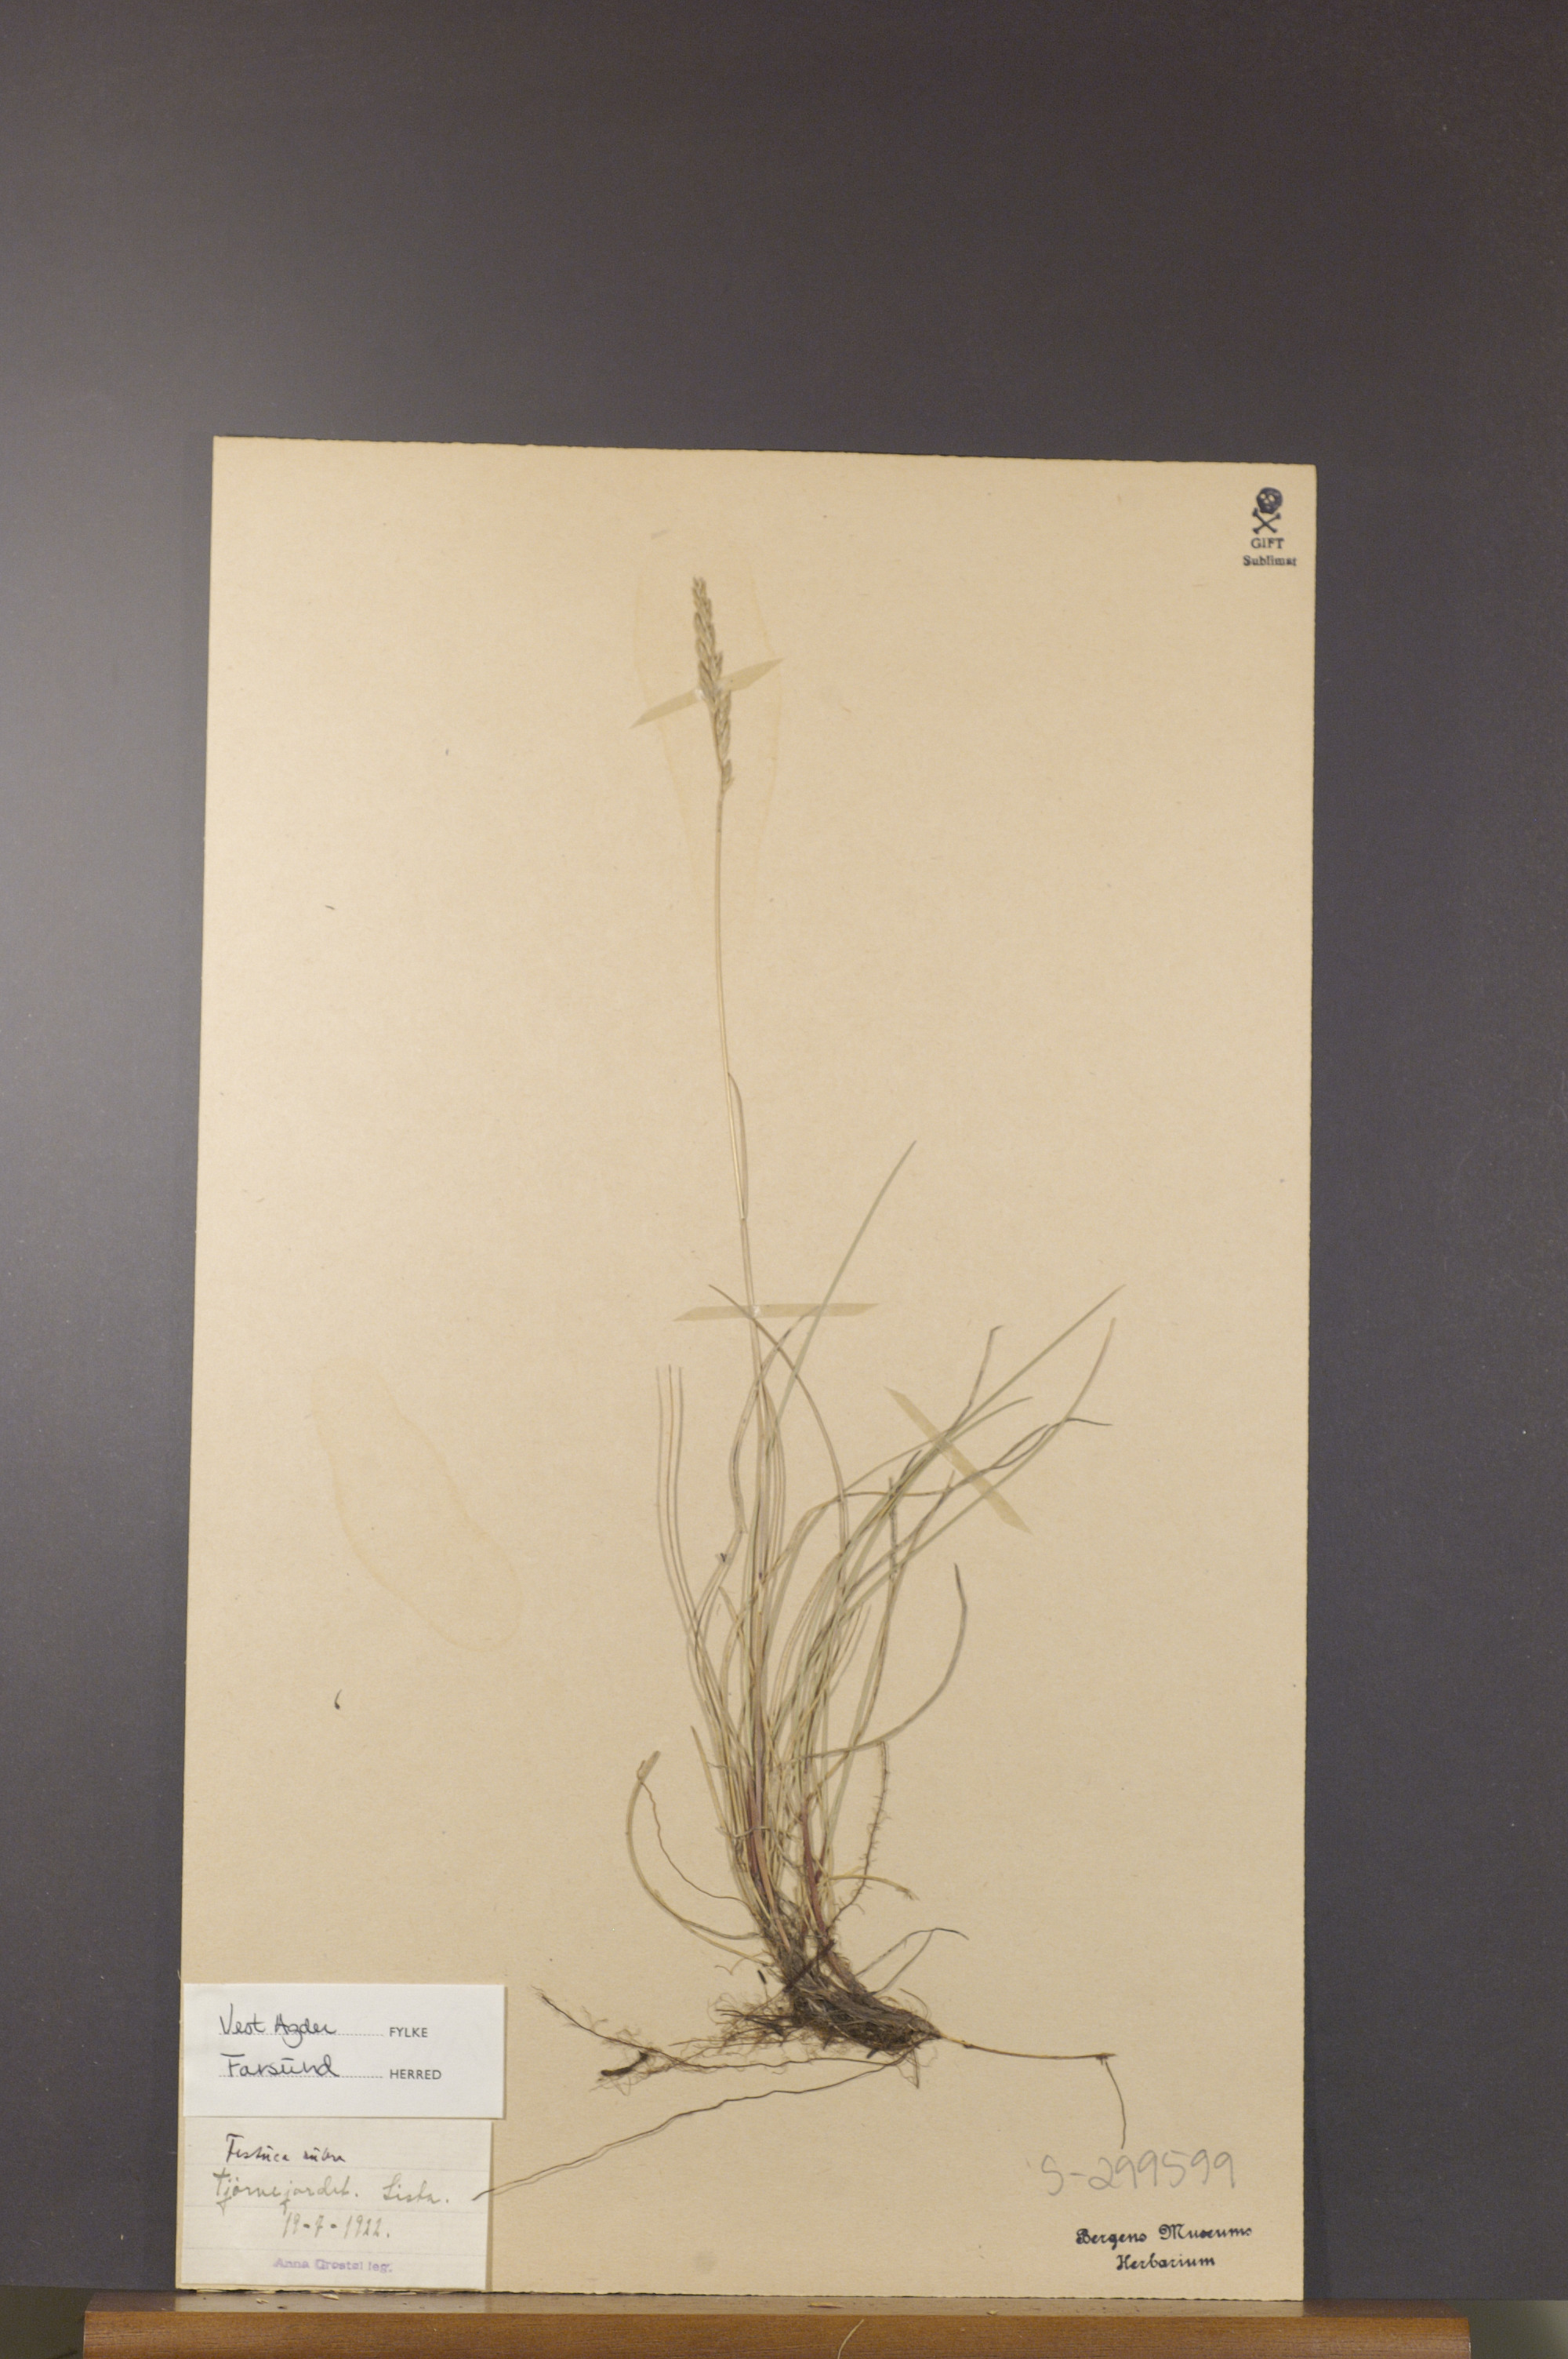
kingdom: Plantae
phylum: Tracheophyta
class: Liliopsida
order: Poales
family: Poaceae
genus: Festuca
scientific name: Festuca rubra
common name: Red fescue
